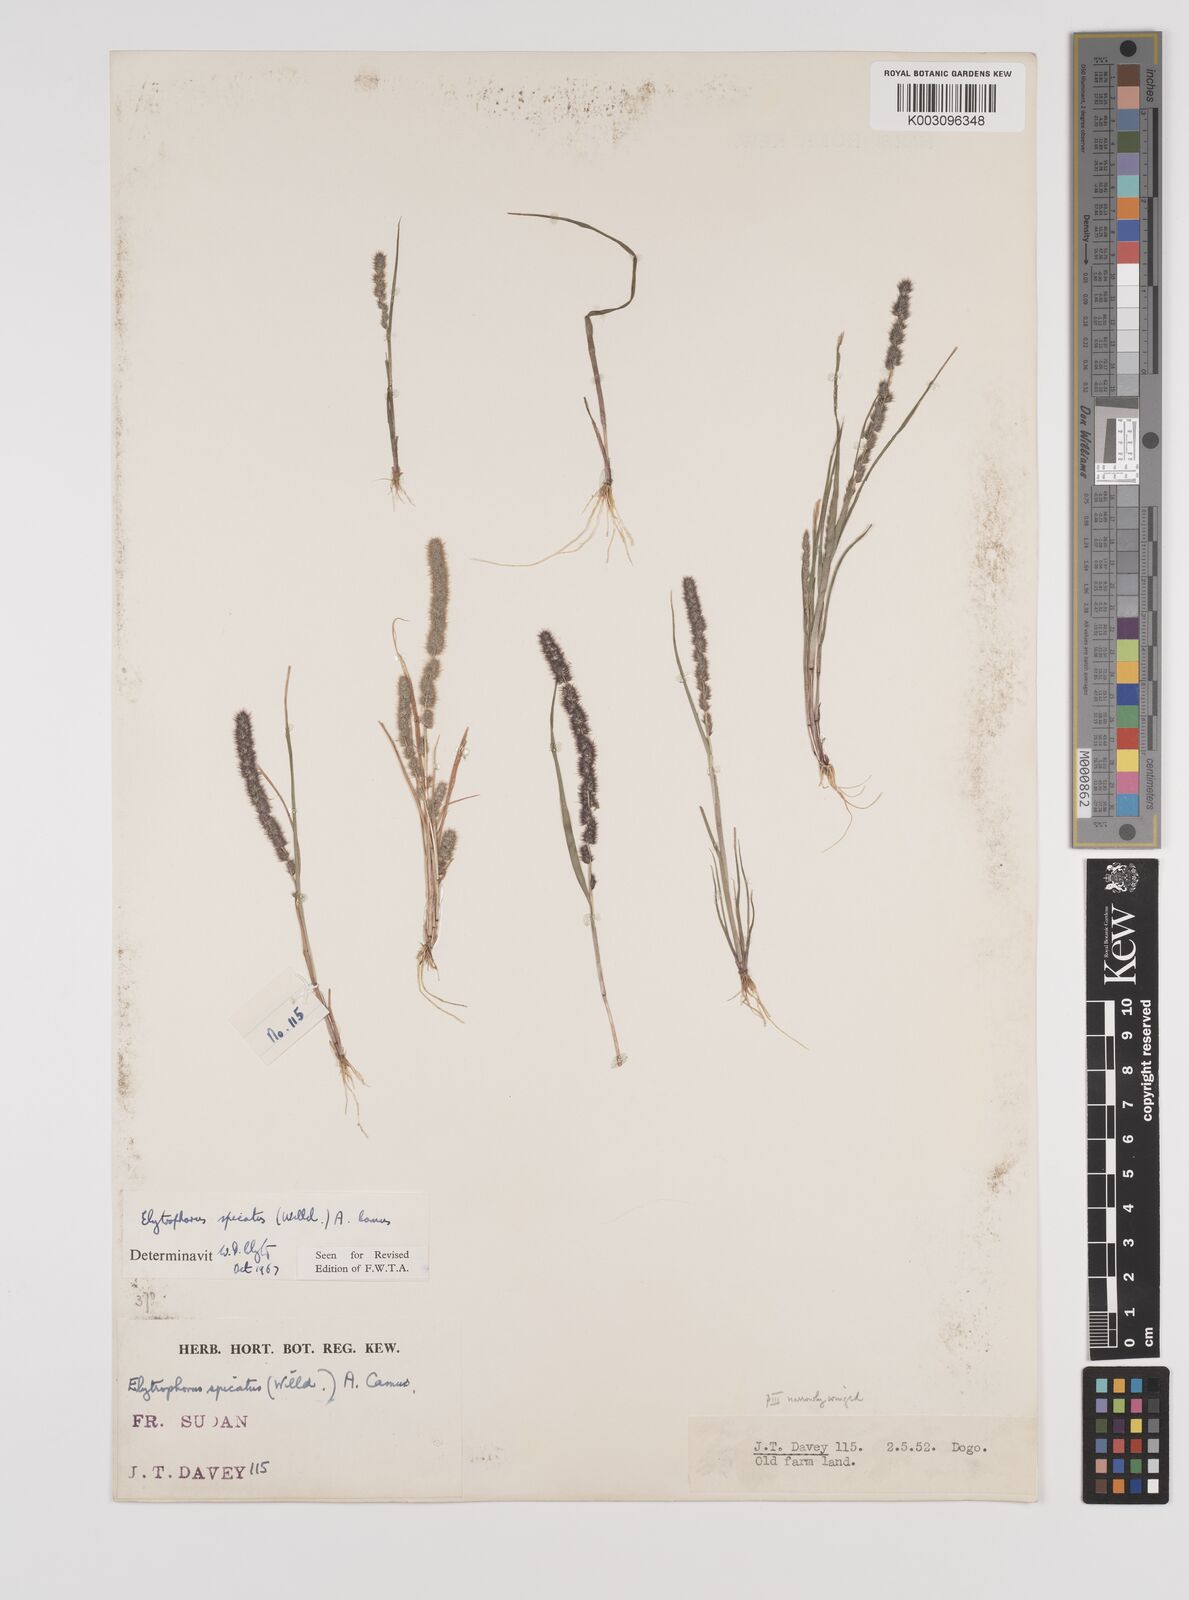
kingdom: Plantae
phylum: Tracheophyta
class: Liliopsida
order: Poales
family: Poaceae
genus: Elytrophorus
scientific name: Elytrophorus spicatus
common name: Spike grass
